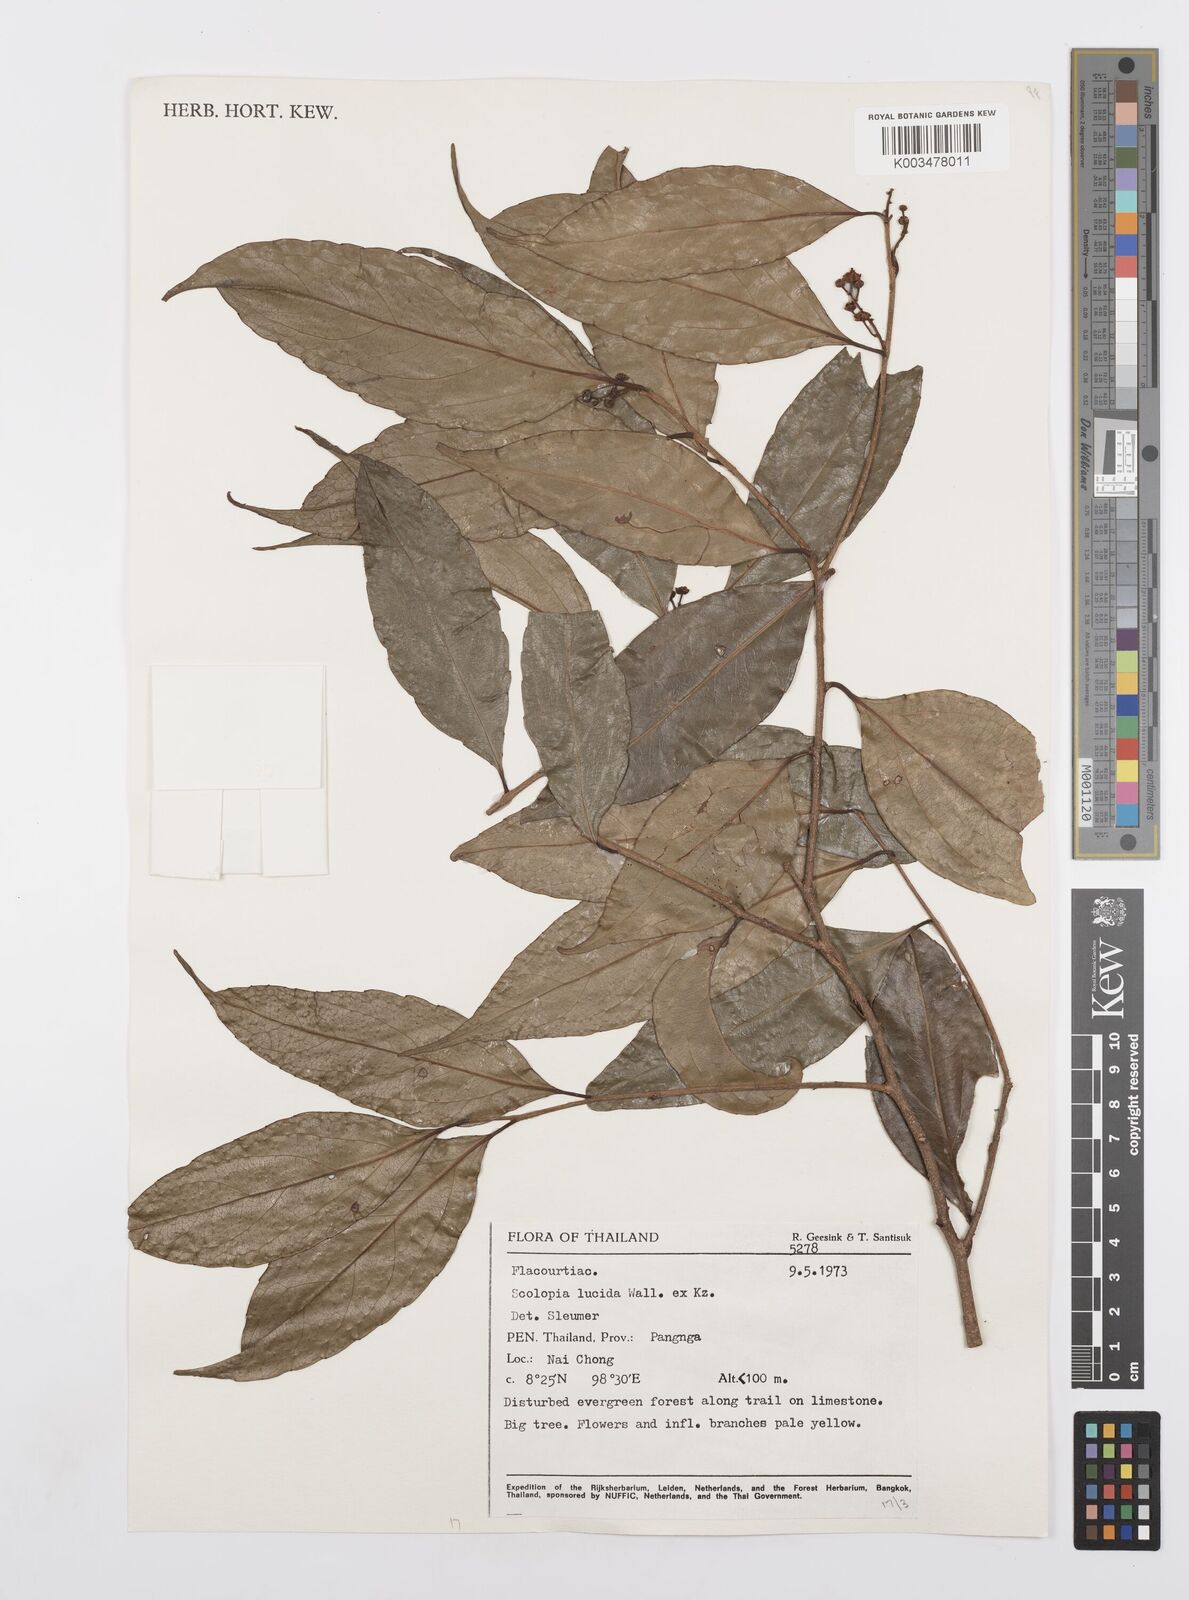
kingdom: Plantae
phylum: Tracheophyta
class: Magnoliopsida
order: Malpighiales
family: Salicaceae
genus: Scolopia
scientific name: Scolopia lucida
